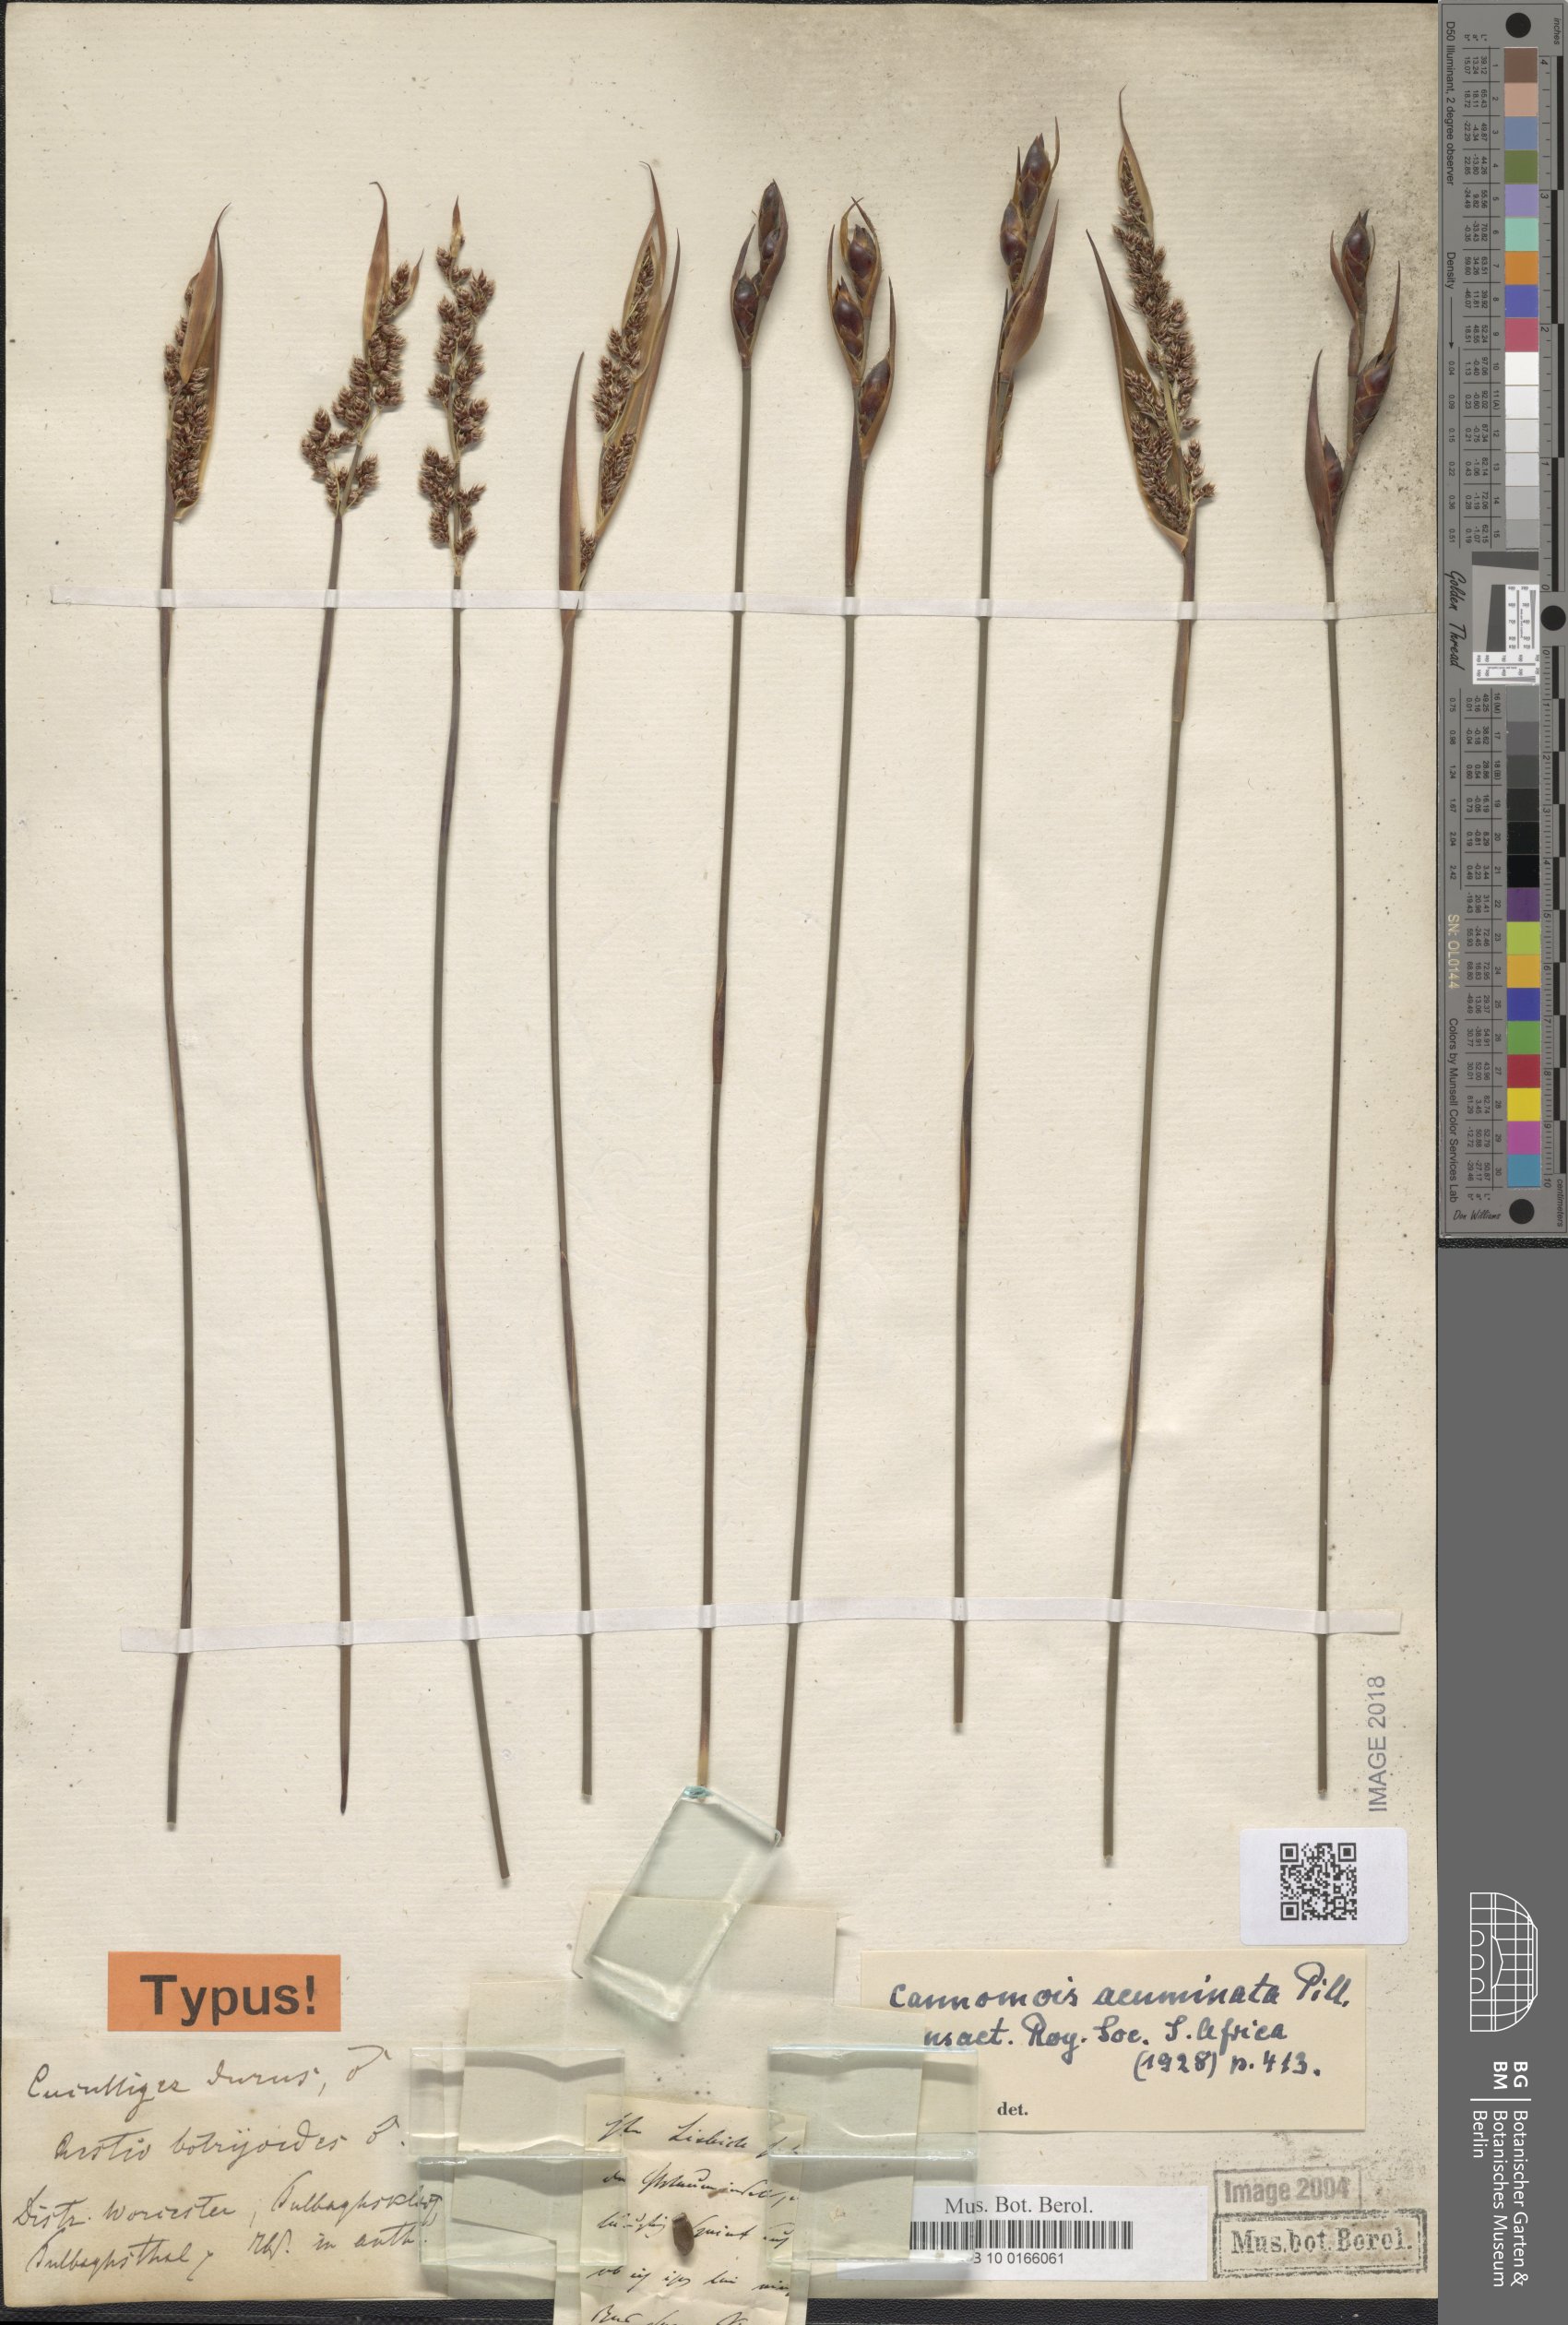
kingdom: Plantae
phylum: Tracheophyta
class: Liliopsida
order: Poales
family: Restionaceae
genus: Cannomois
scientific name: Cannomois parviflora
